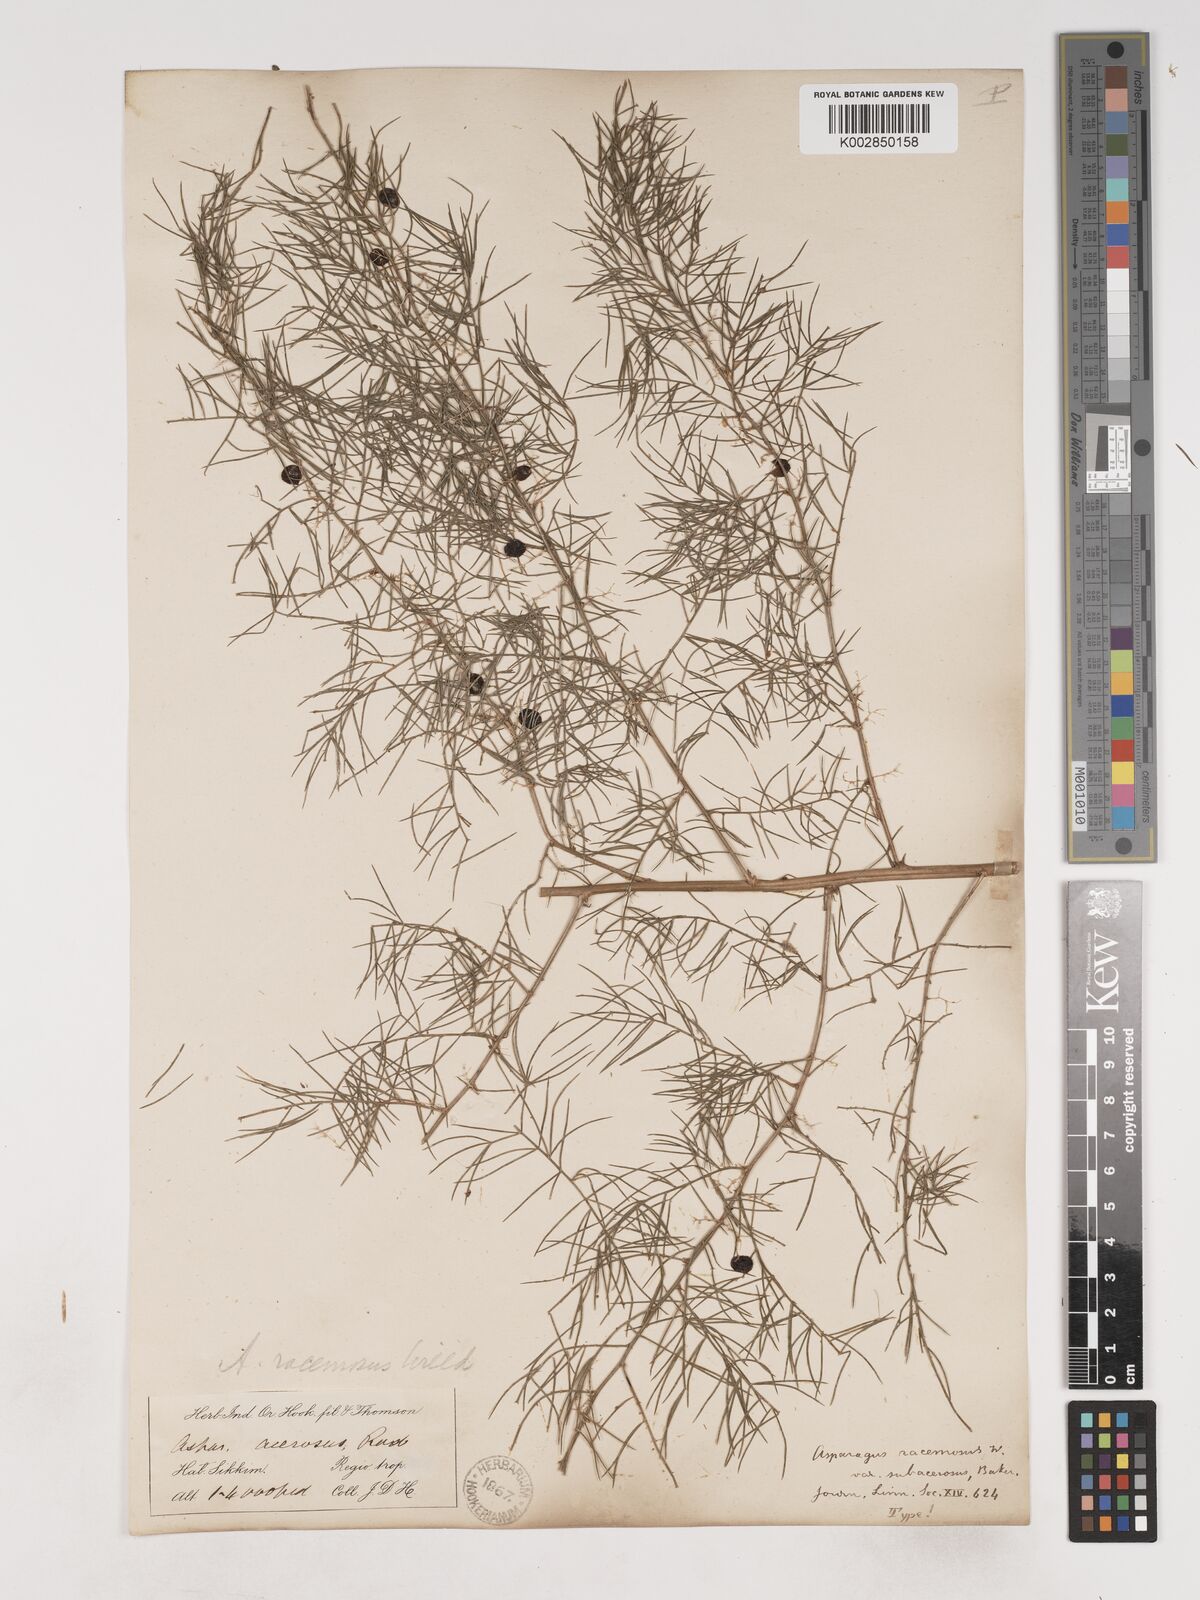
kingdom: Plantae
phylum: Tracheophyta
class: Liliopsida
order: Asparagales
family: Asparagaceae
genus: Asparagus
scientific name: Asparagus racemosus
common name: Asparagus-fern
